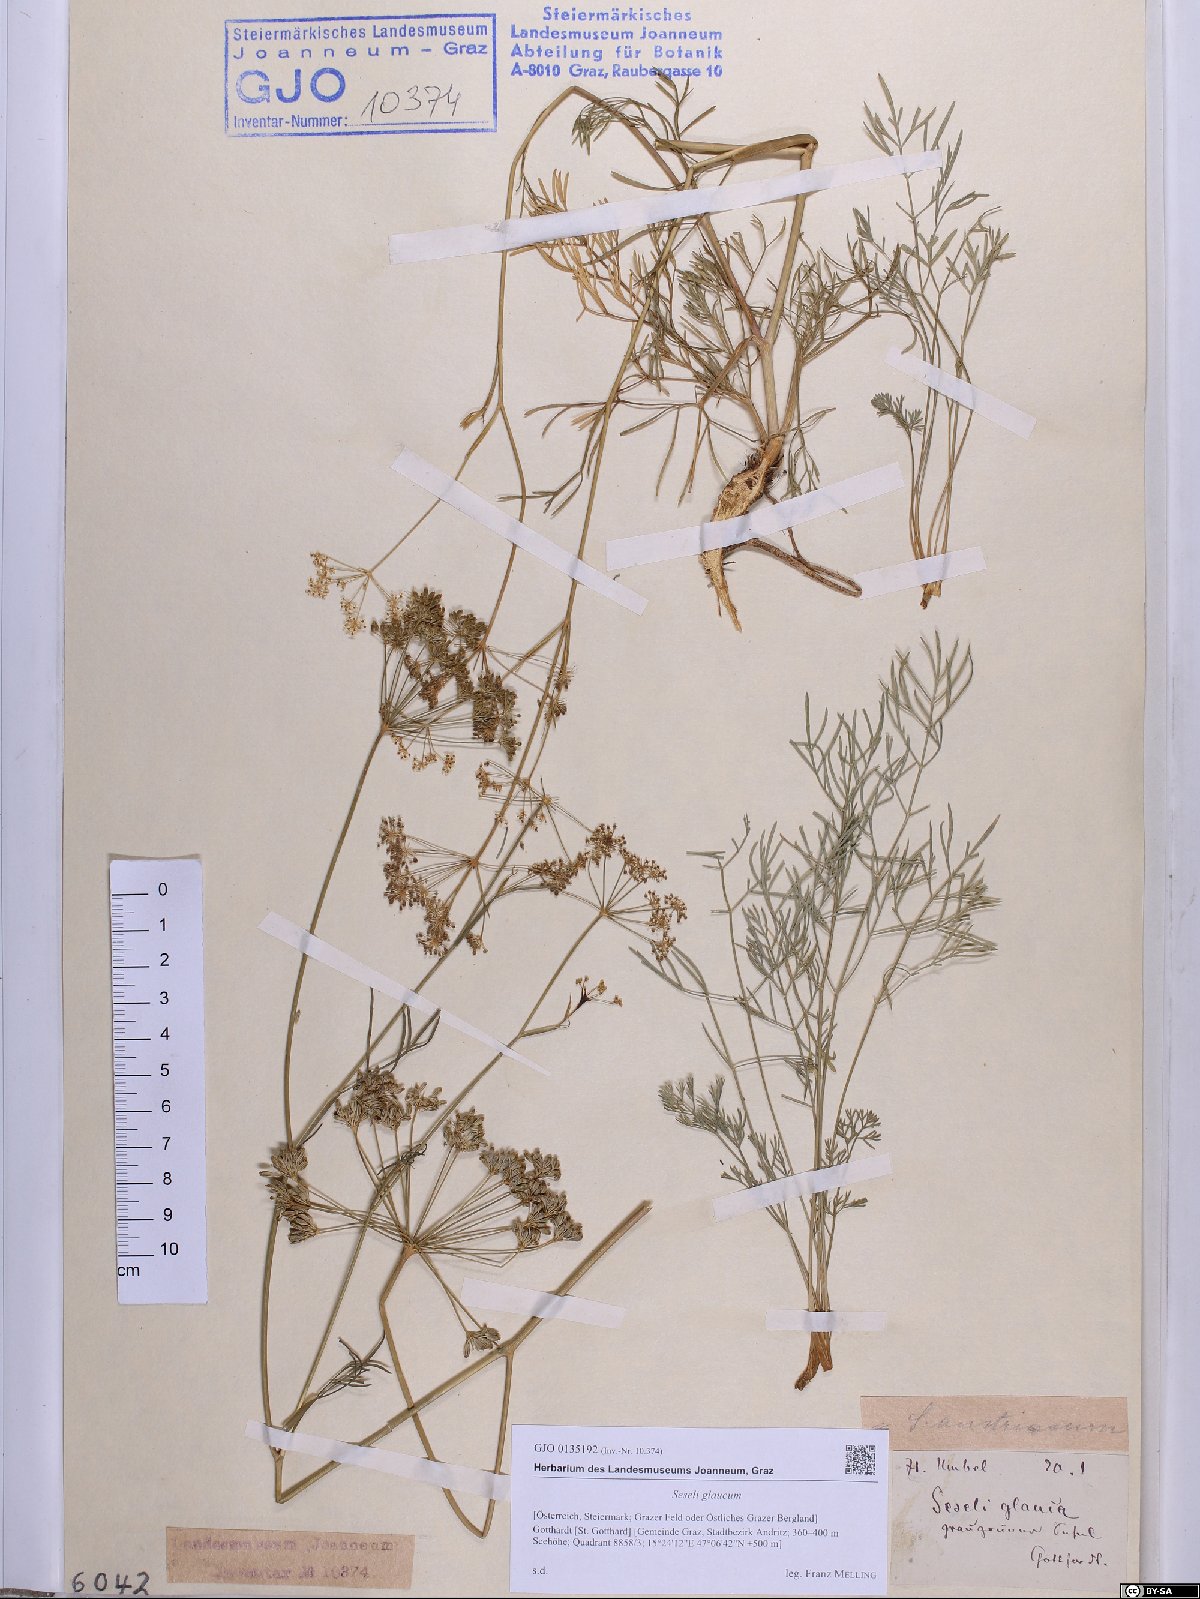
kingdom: Plantae
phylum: Tracheophyta
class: Magnoliopsida
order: Apiales
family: Apiaceae
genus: Seseli
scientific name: Seseli montanum
